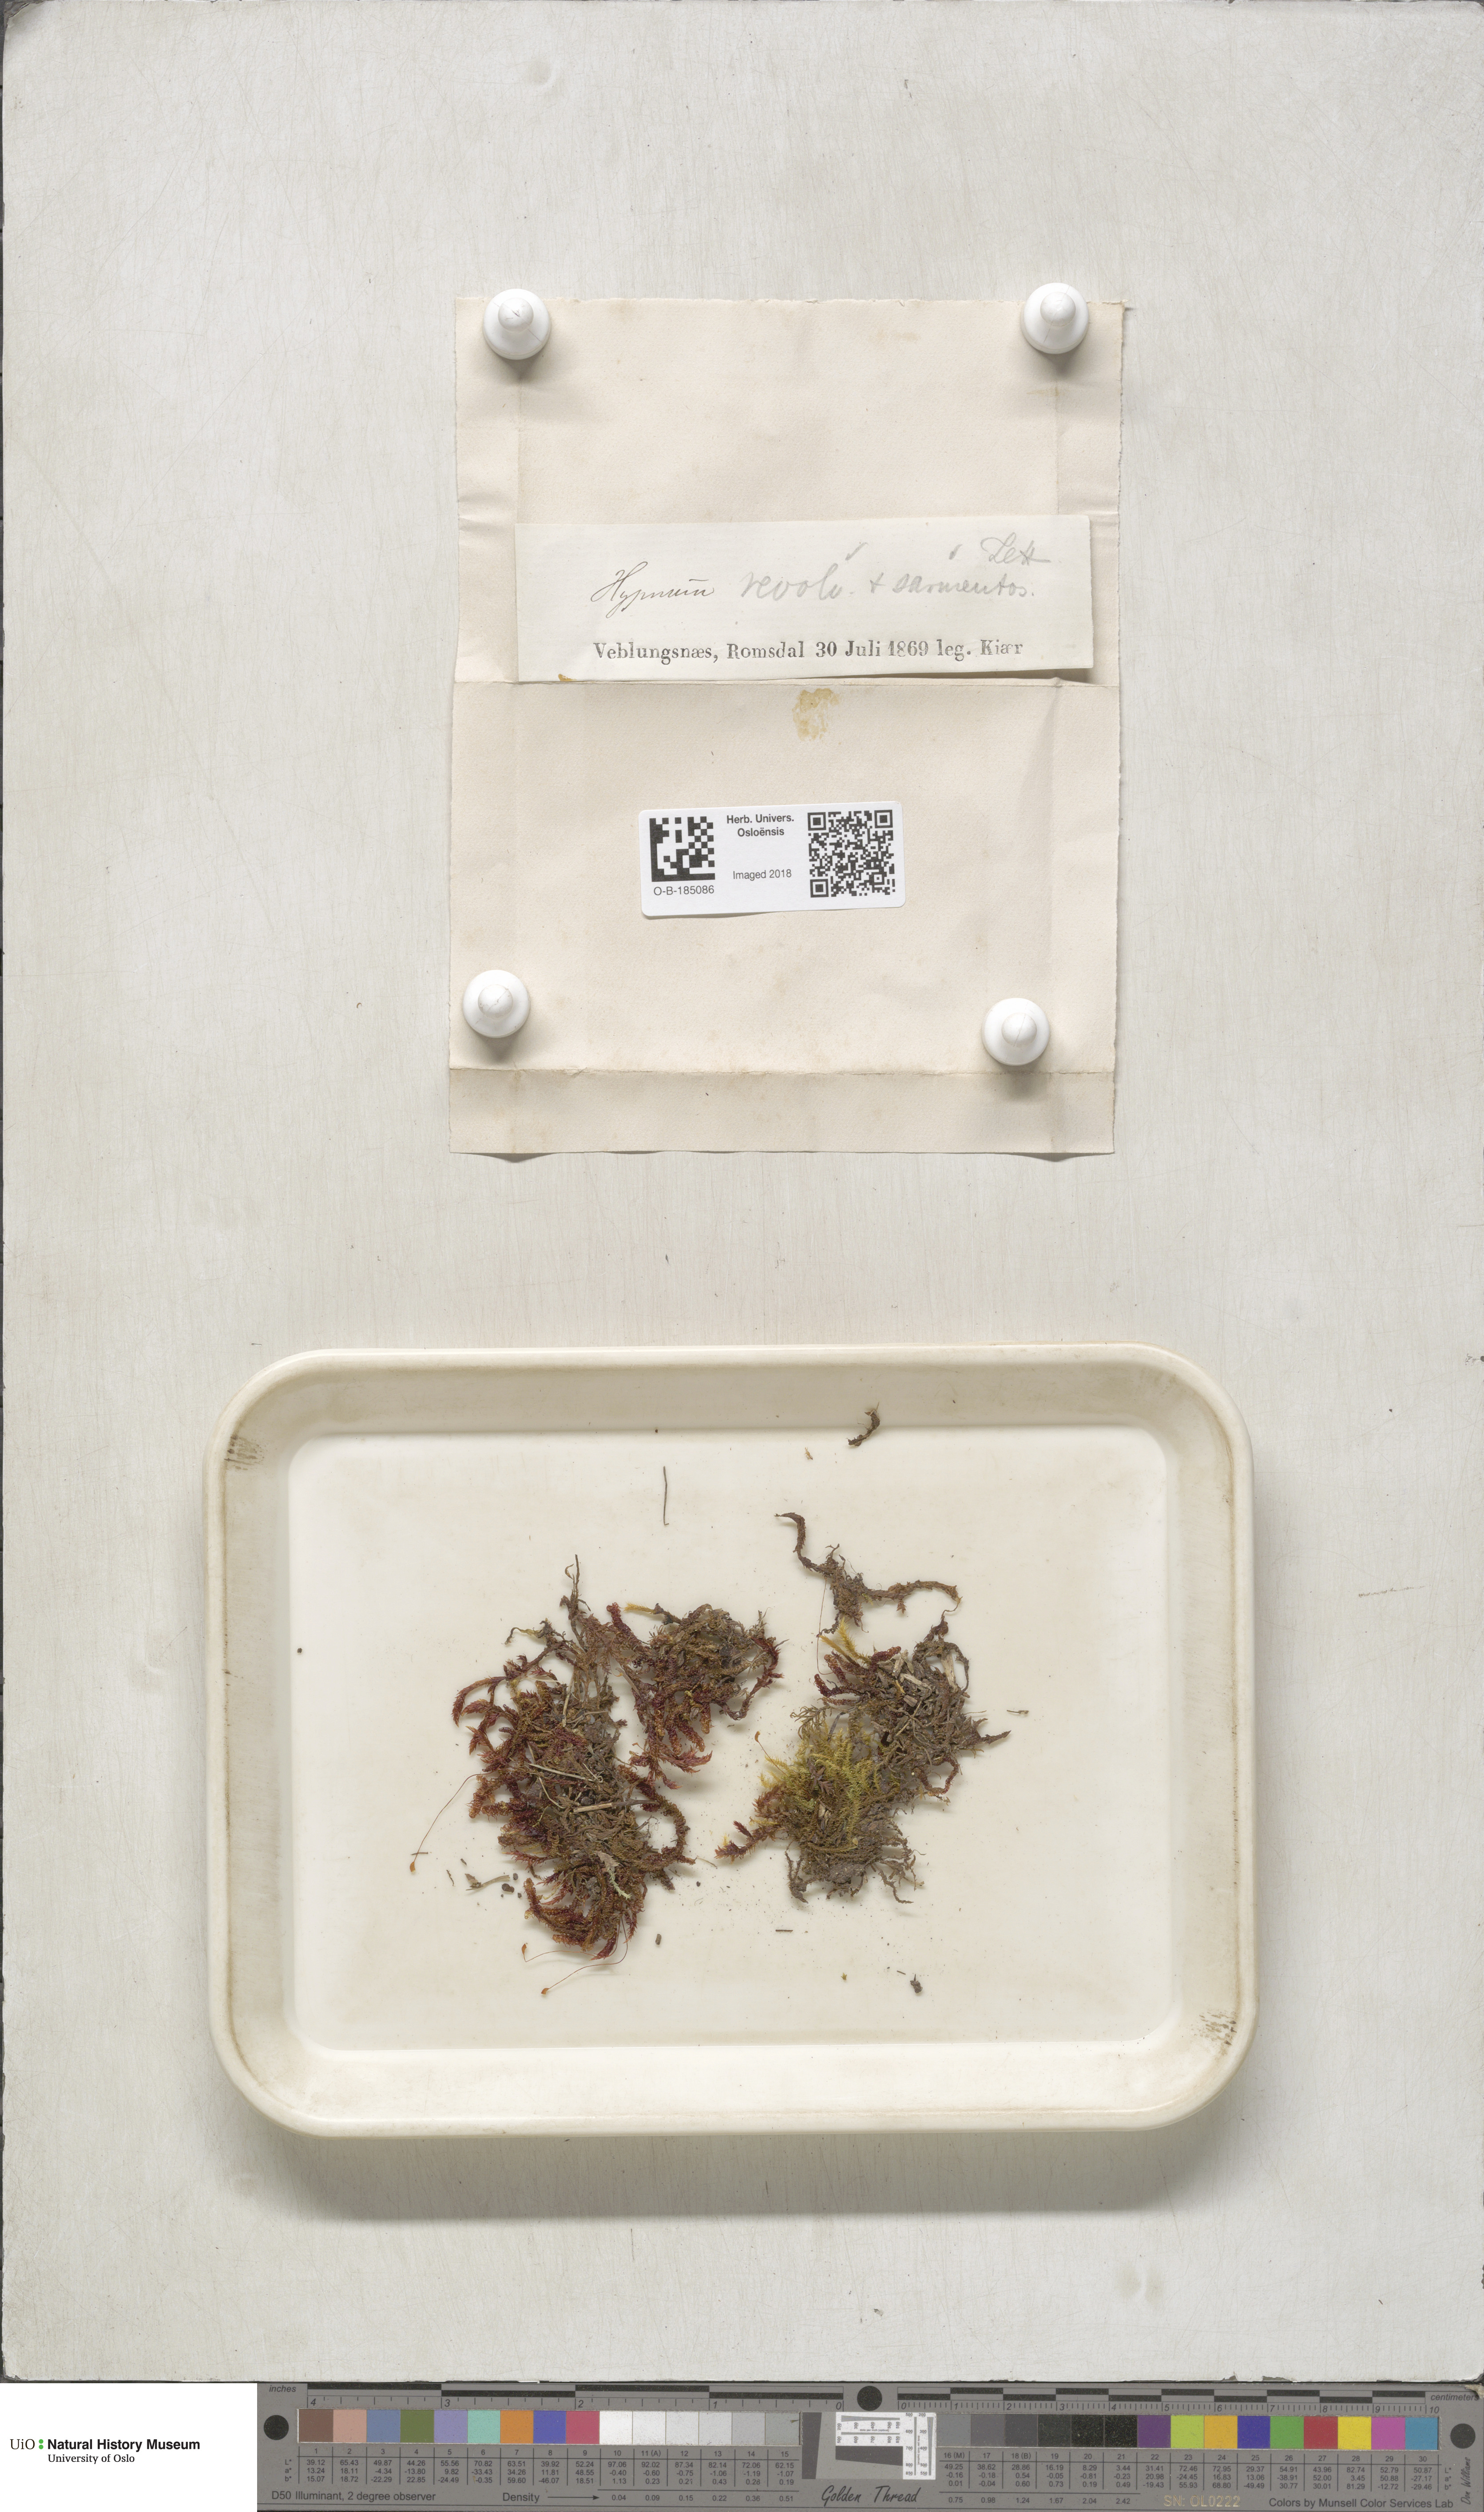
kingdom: Plantae
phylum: Bryophyta
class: Bryopsida
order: Hypnales
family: Scorpidiaceae
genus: Scorpidium
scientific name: Scorpidium revolvens
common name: Rusty hook moss
